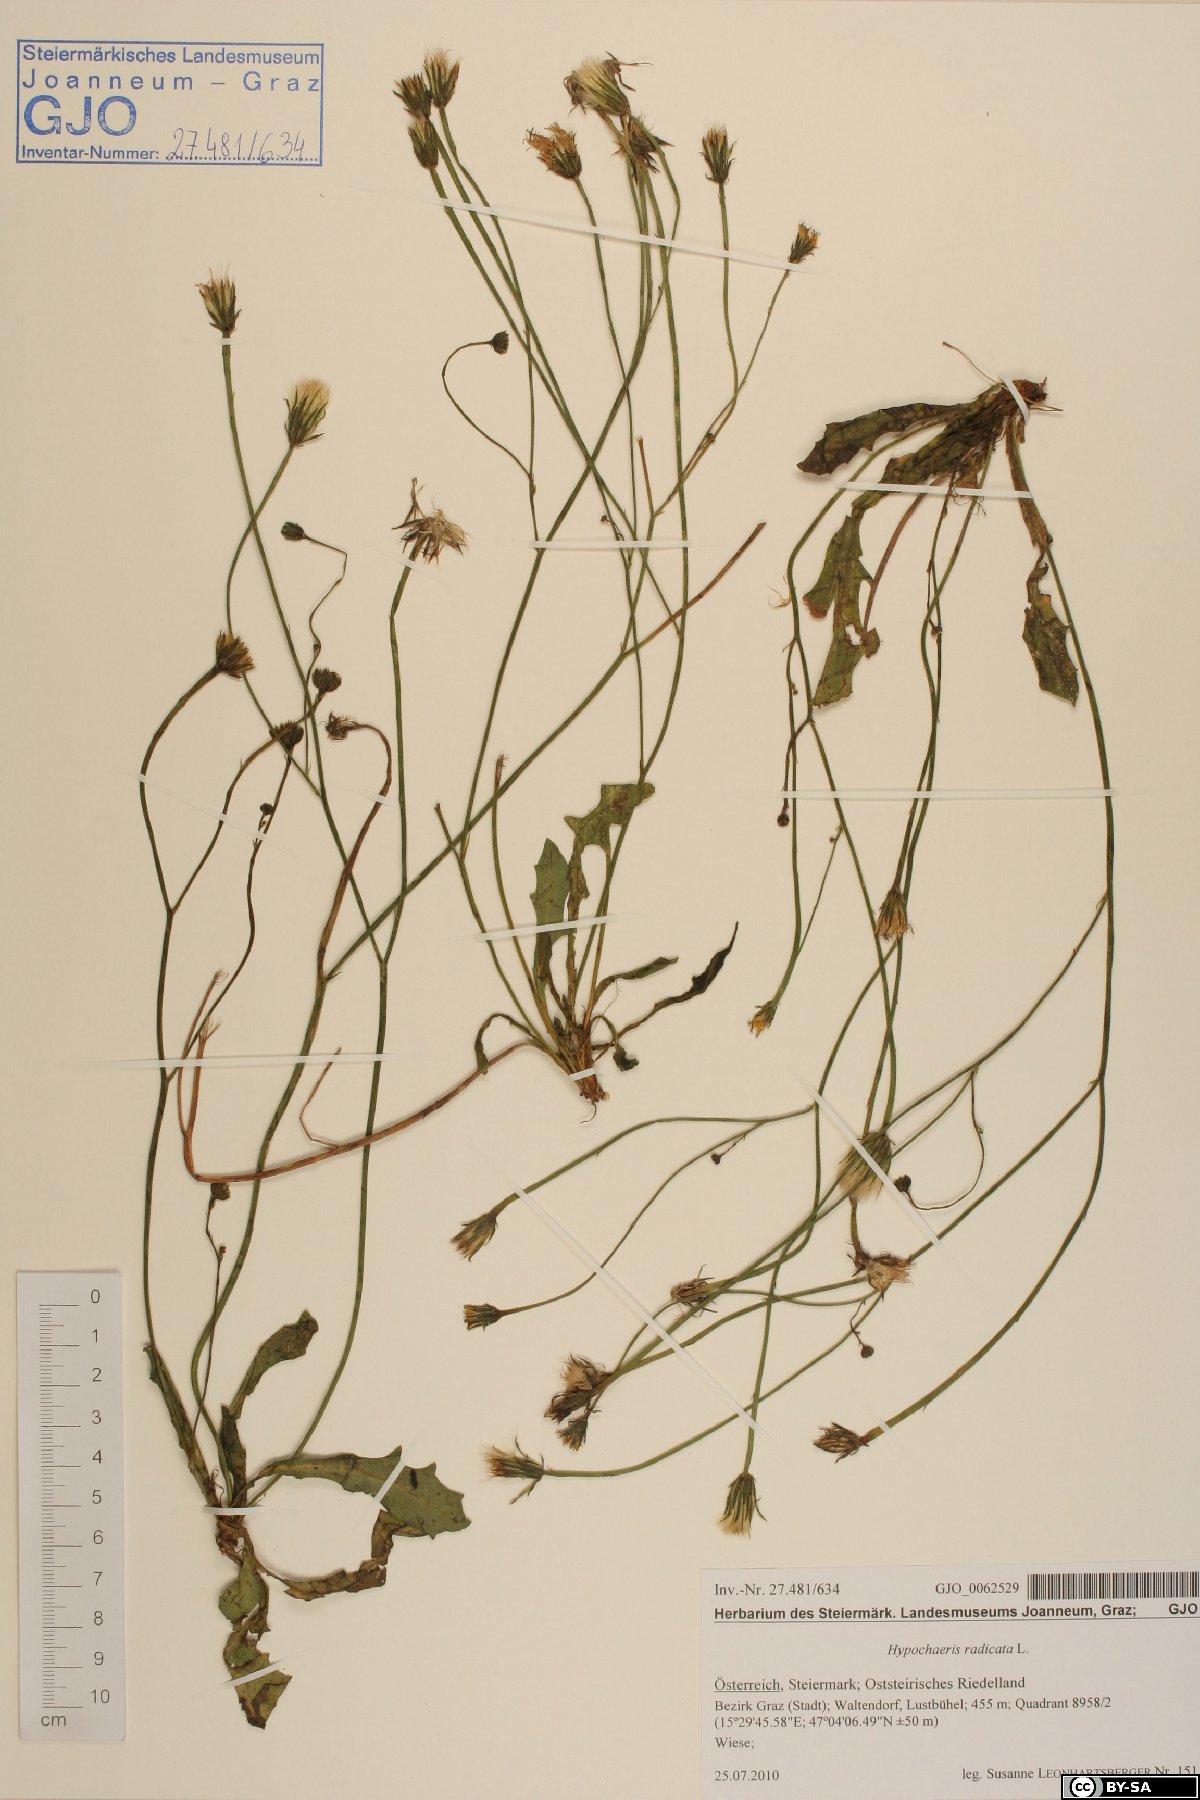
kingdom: Plantae
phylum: Tracheophyta
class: Magnoliopsida
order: Asterales
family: Asteraceae
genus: Hypochaeris
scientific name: Hypochaeris radicata
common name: Flatweed
